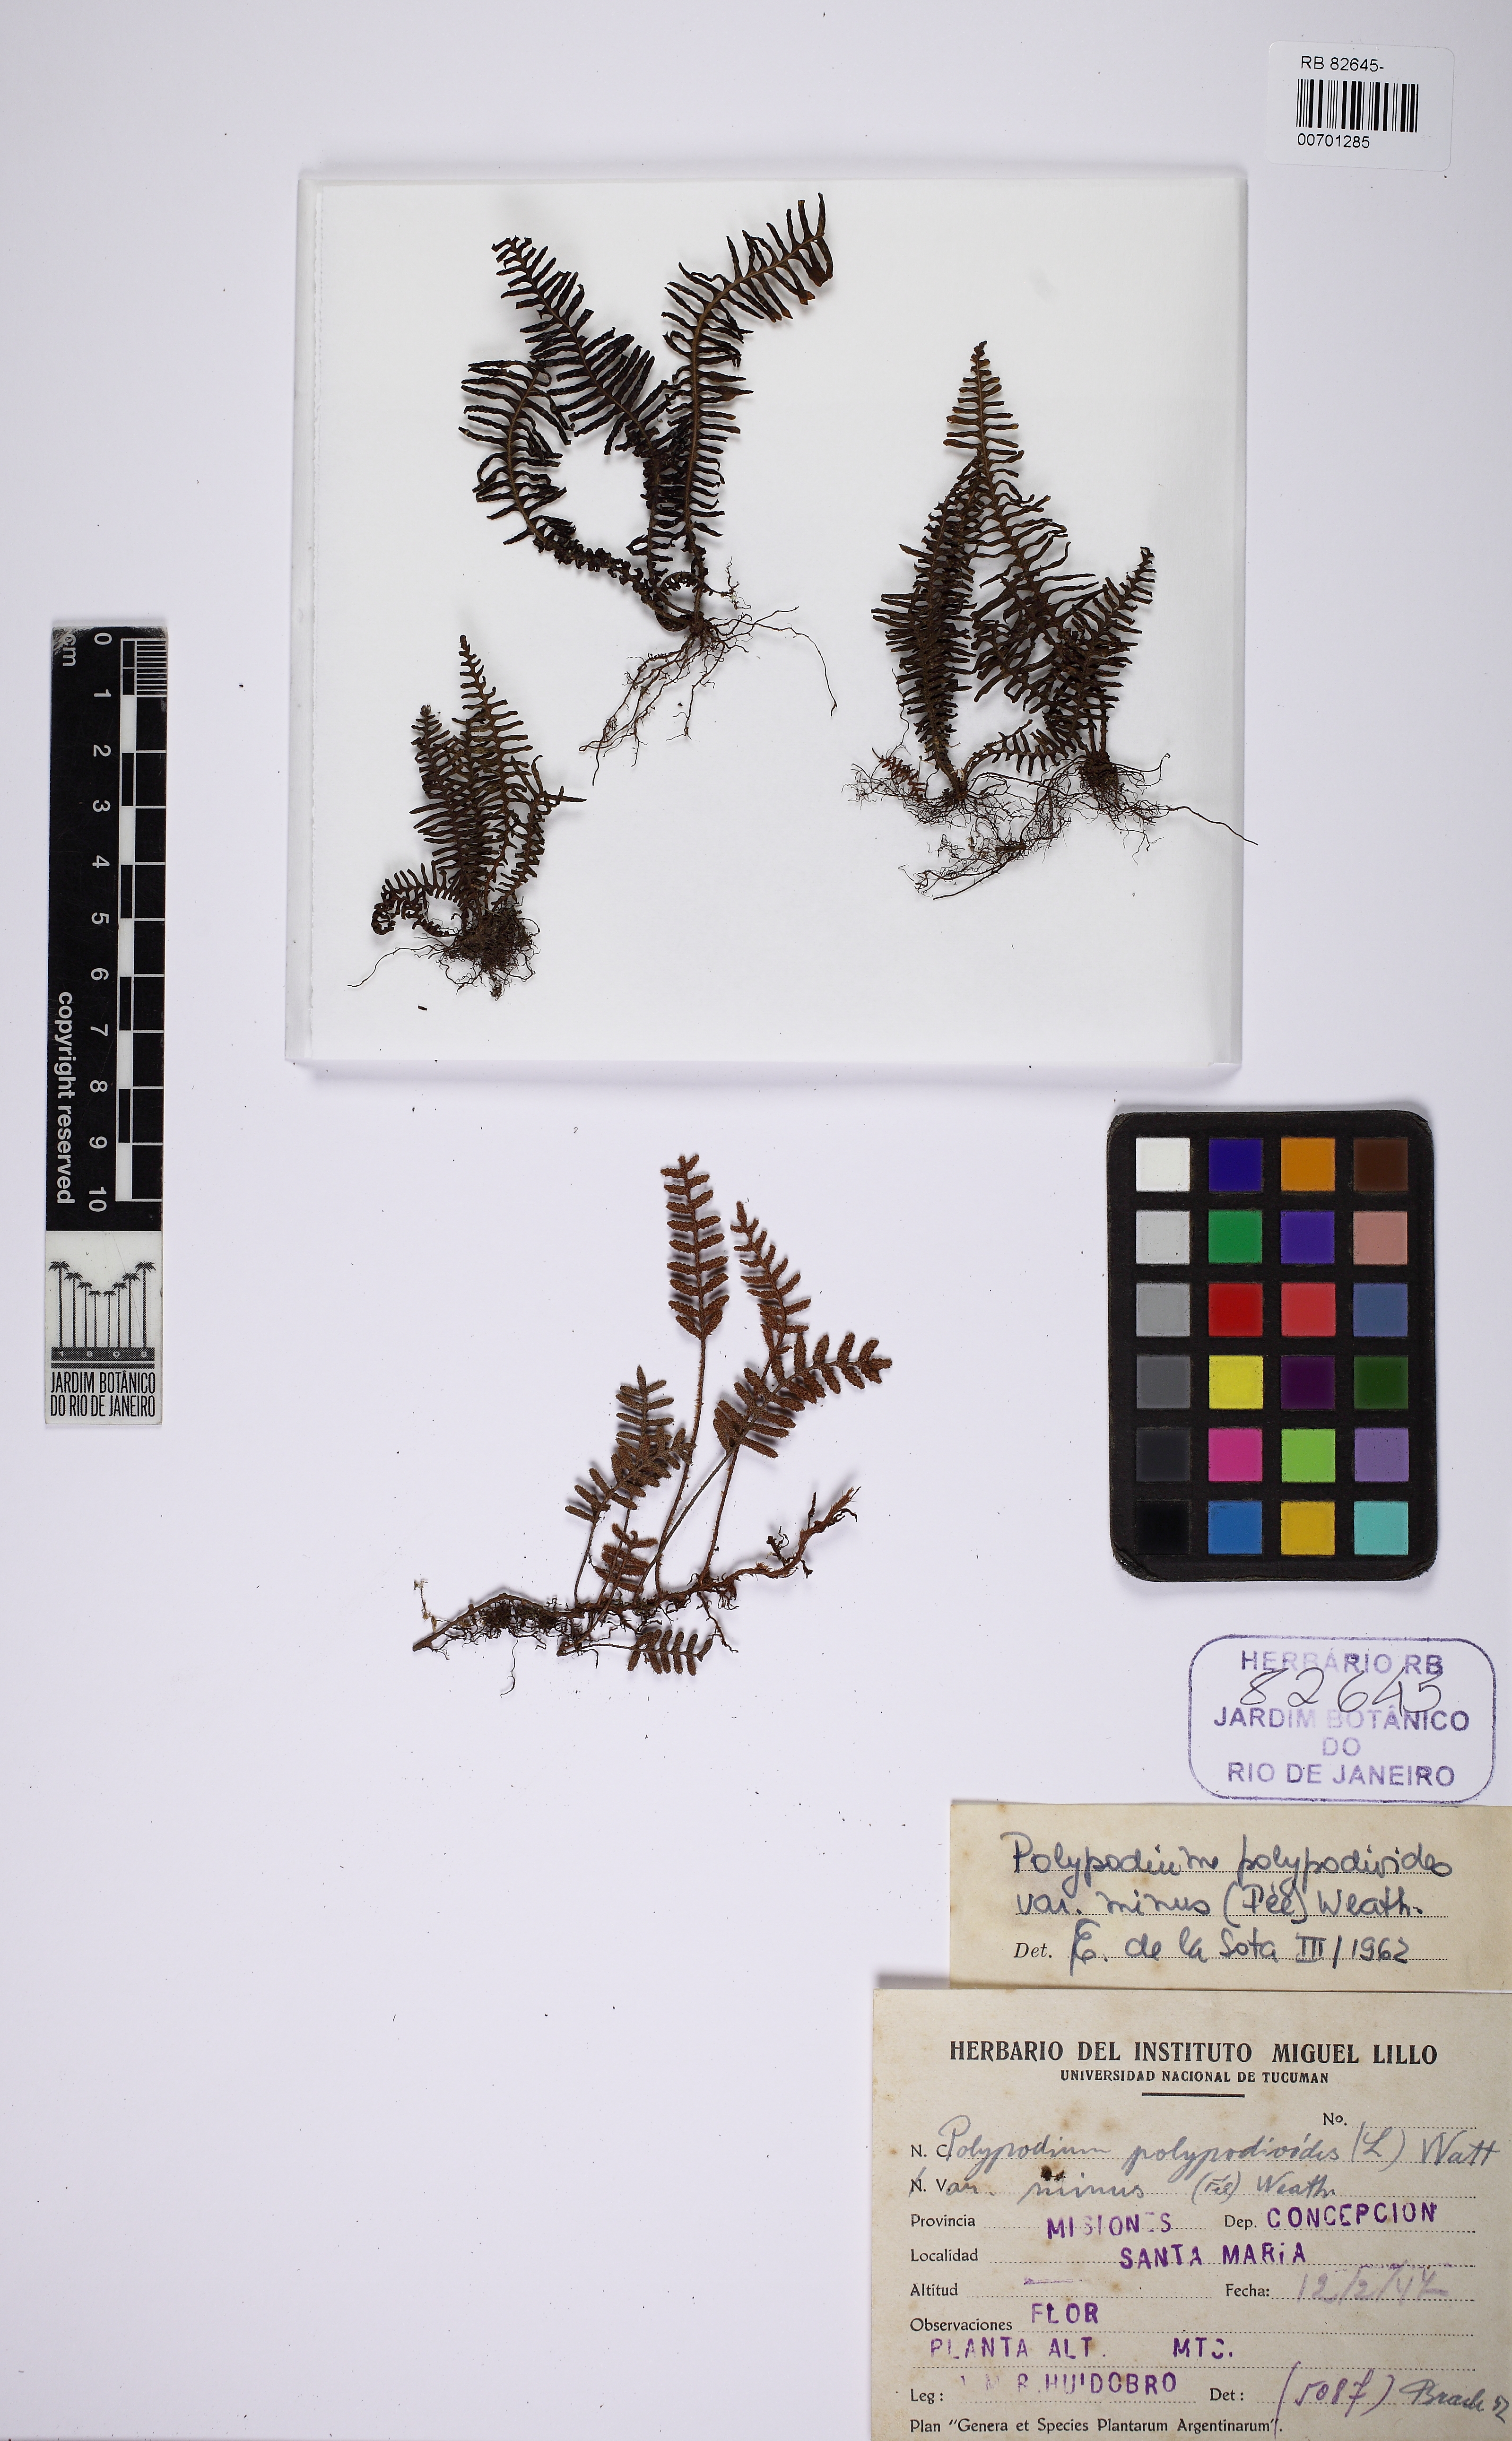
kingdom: Plantae
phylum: Tracheophyta
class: Polypodiopsida
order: Polypodiales
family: Polypodiaceae
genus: Pleopeltis
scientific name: Pleopeltis minima
